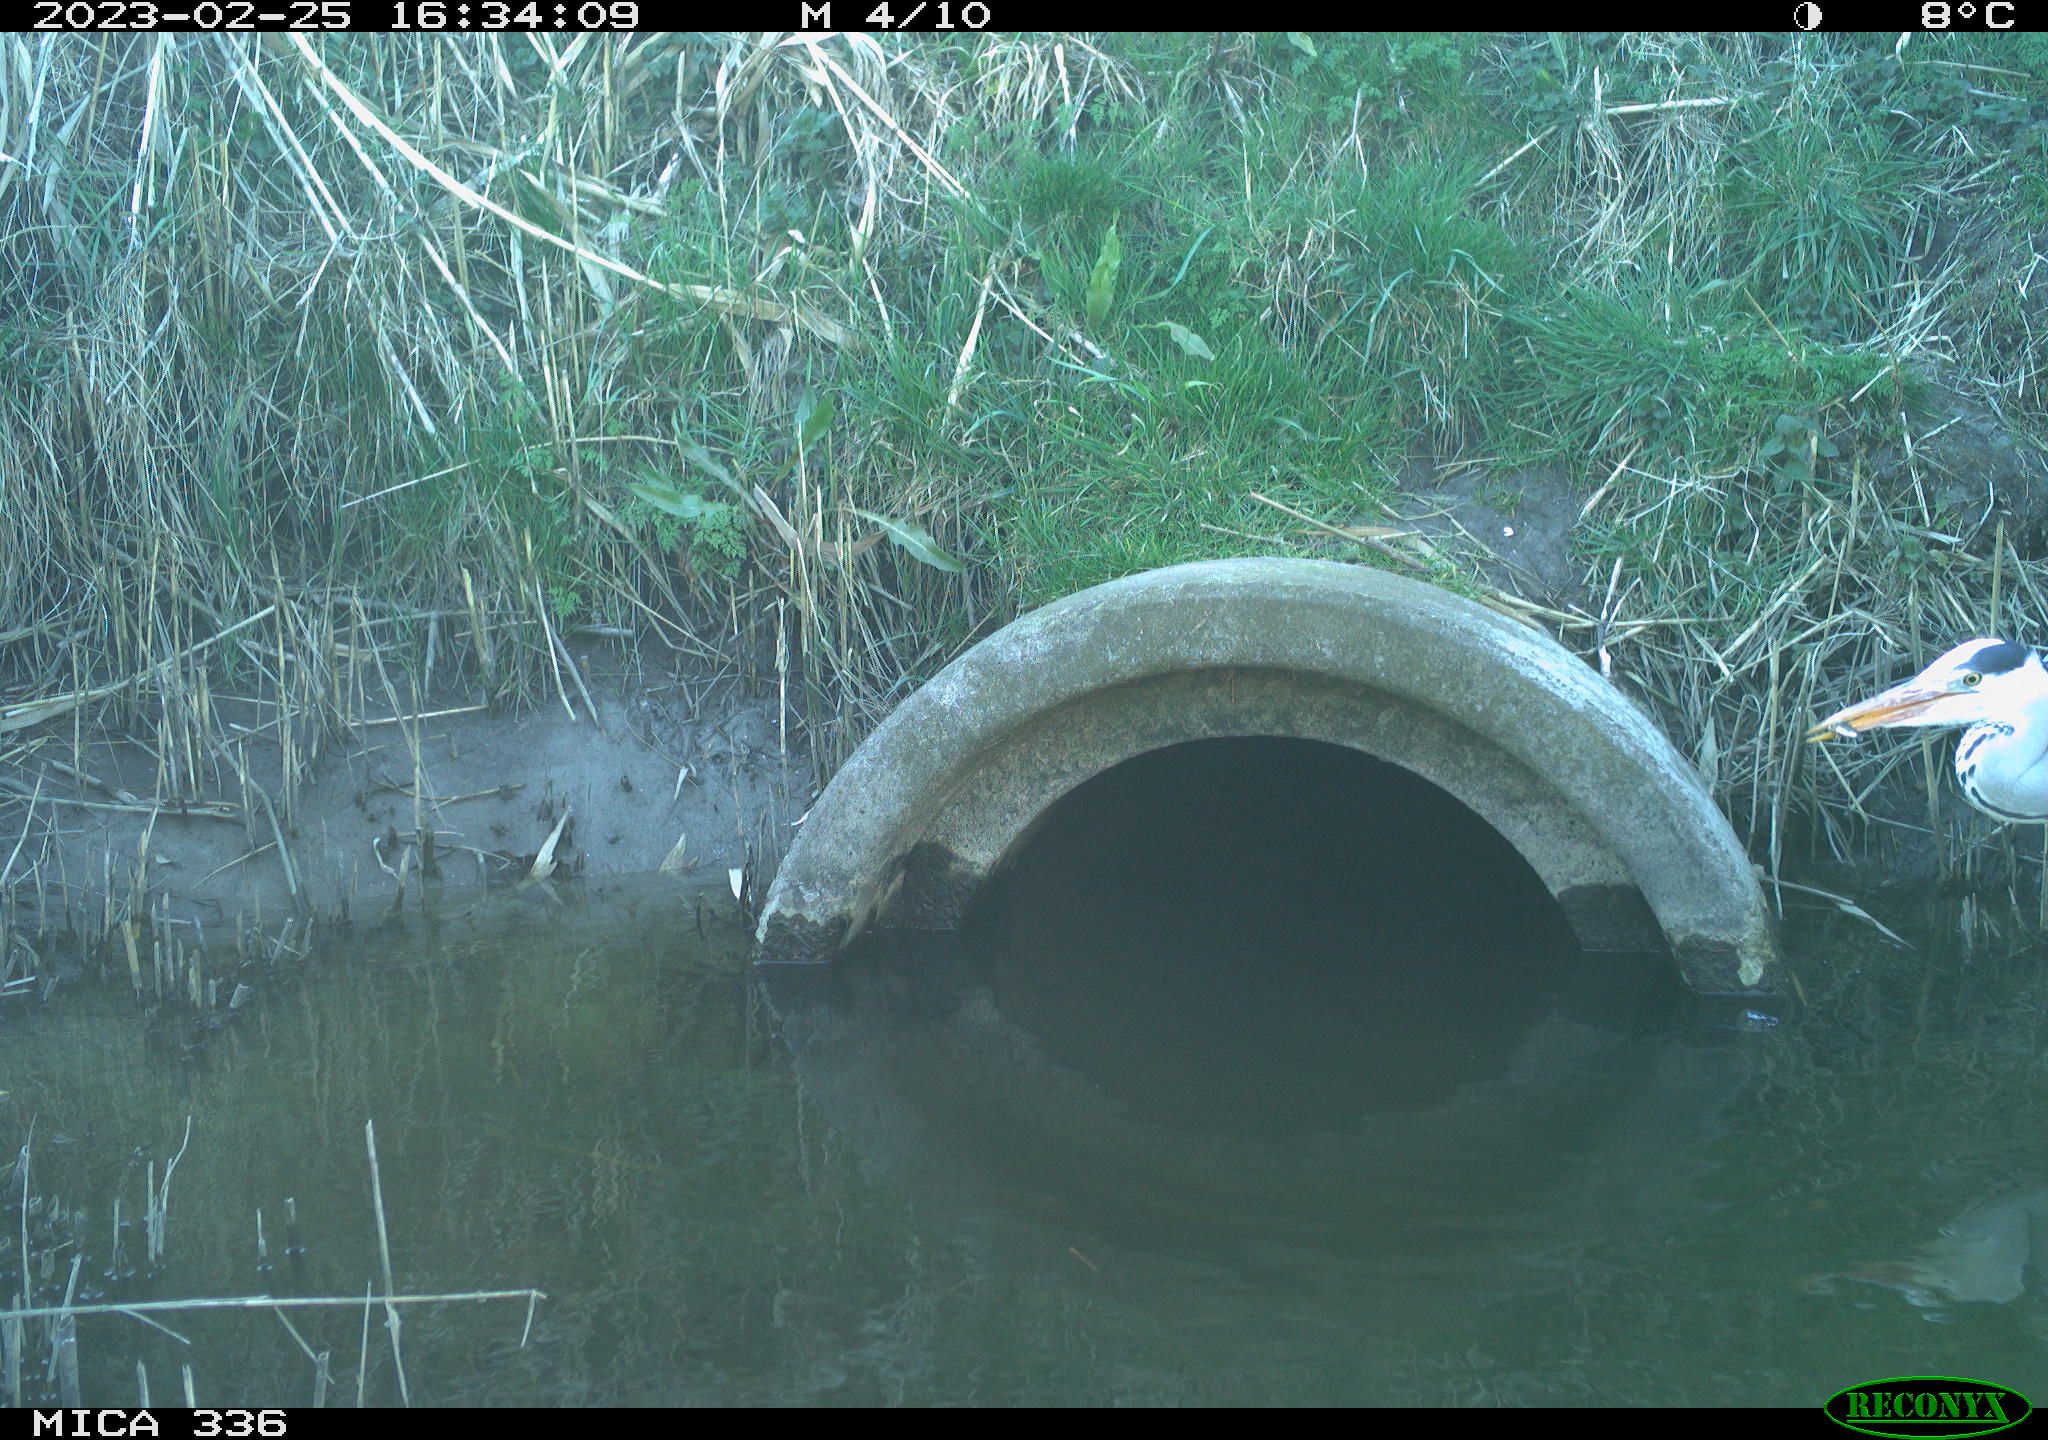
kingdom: Animalia
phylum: Chordata
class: Aves
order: Pelecaniformes
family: Ardeidae
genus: Ardea
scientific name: Ardea cinerea
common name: Grey heron
